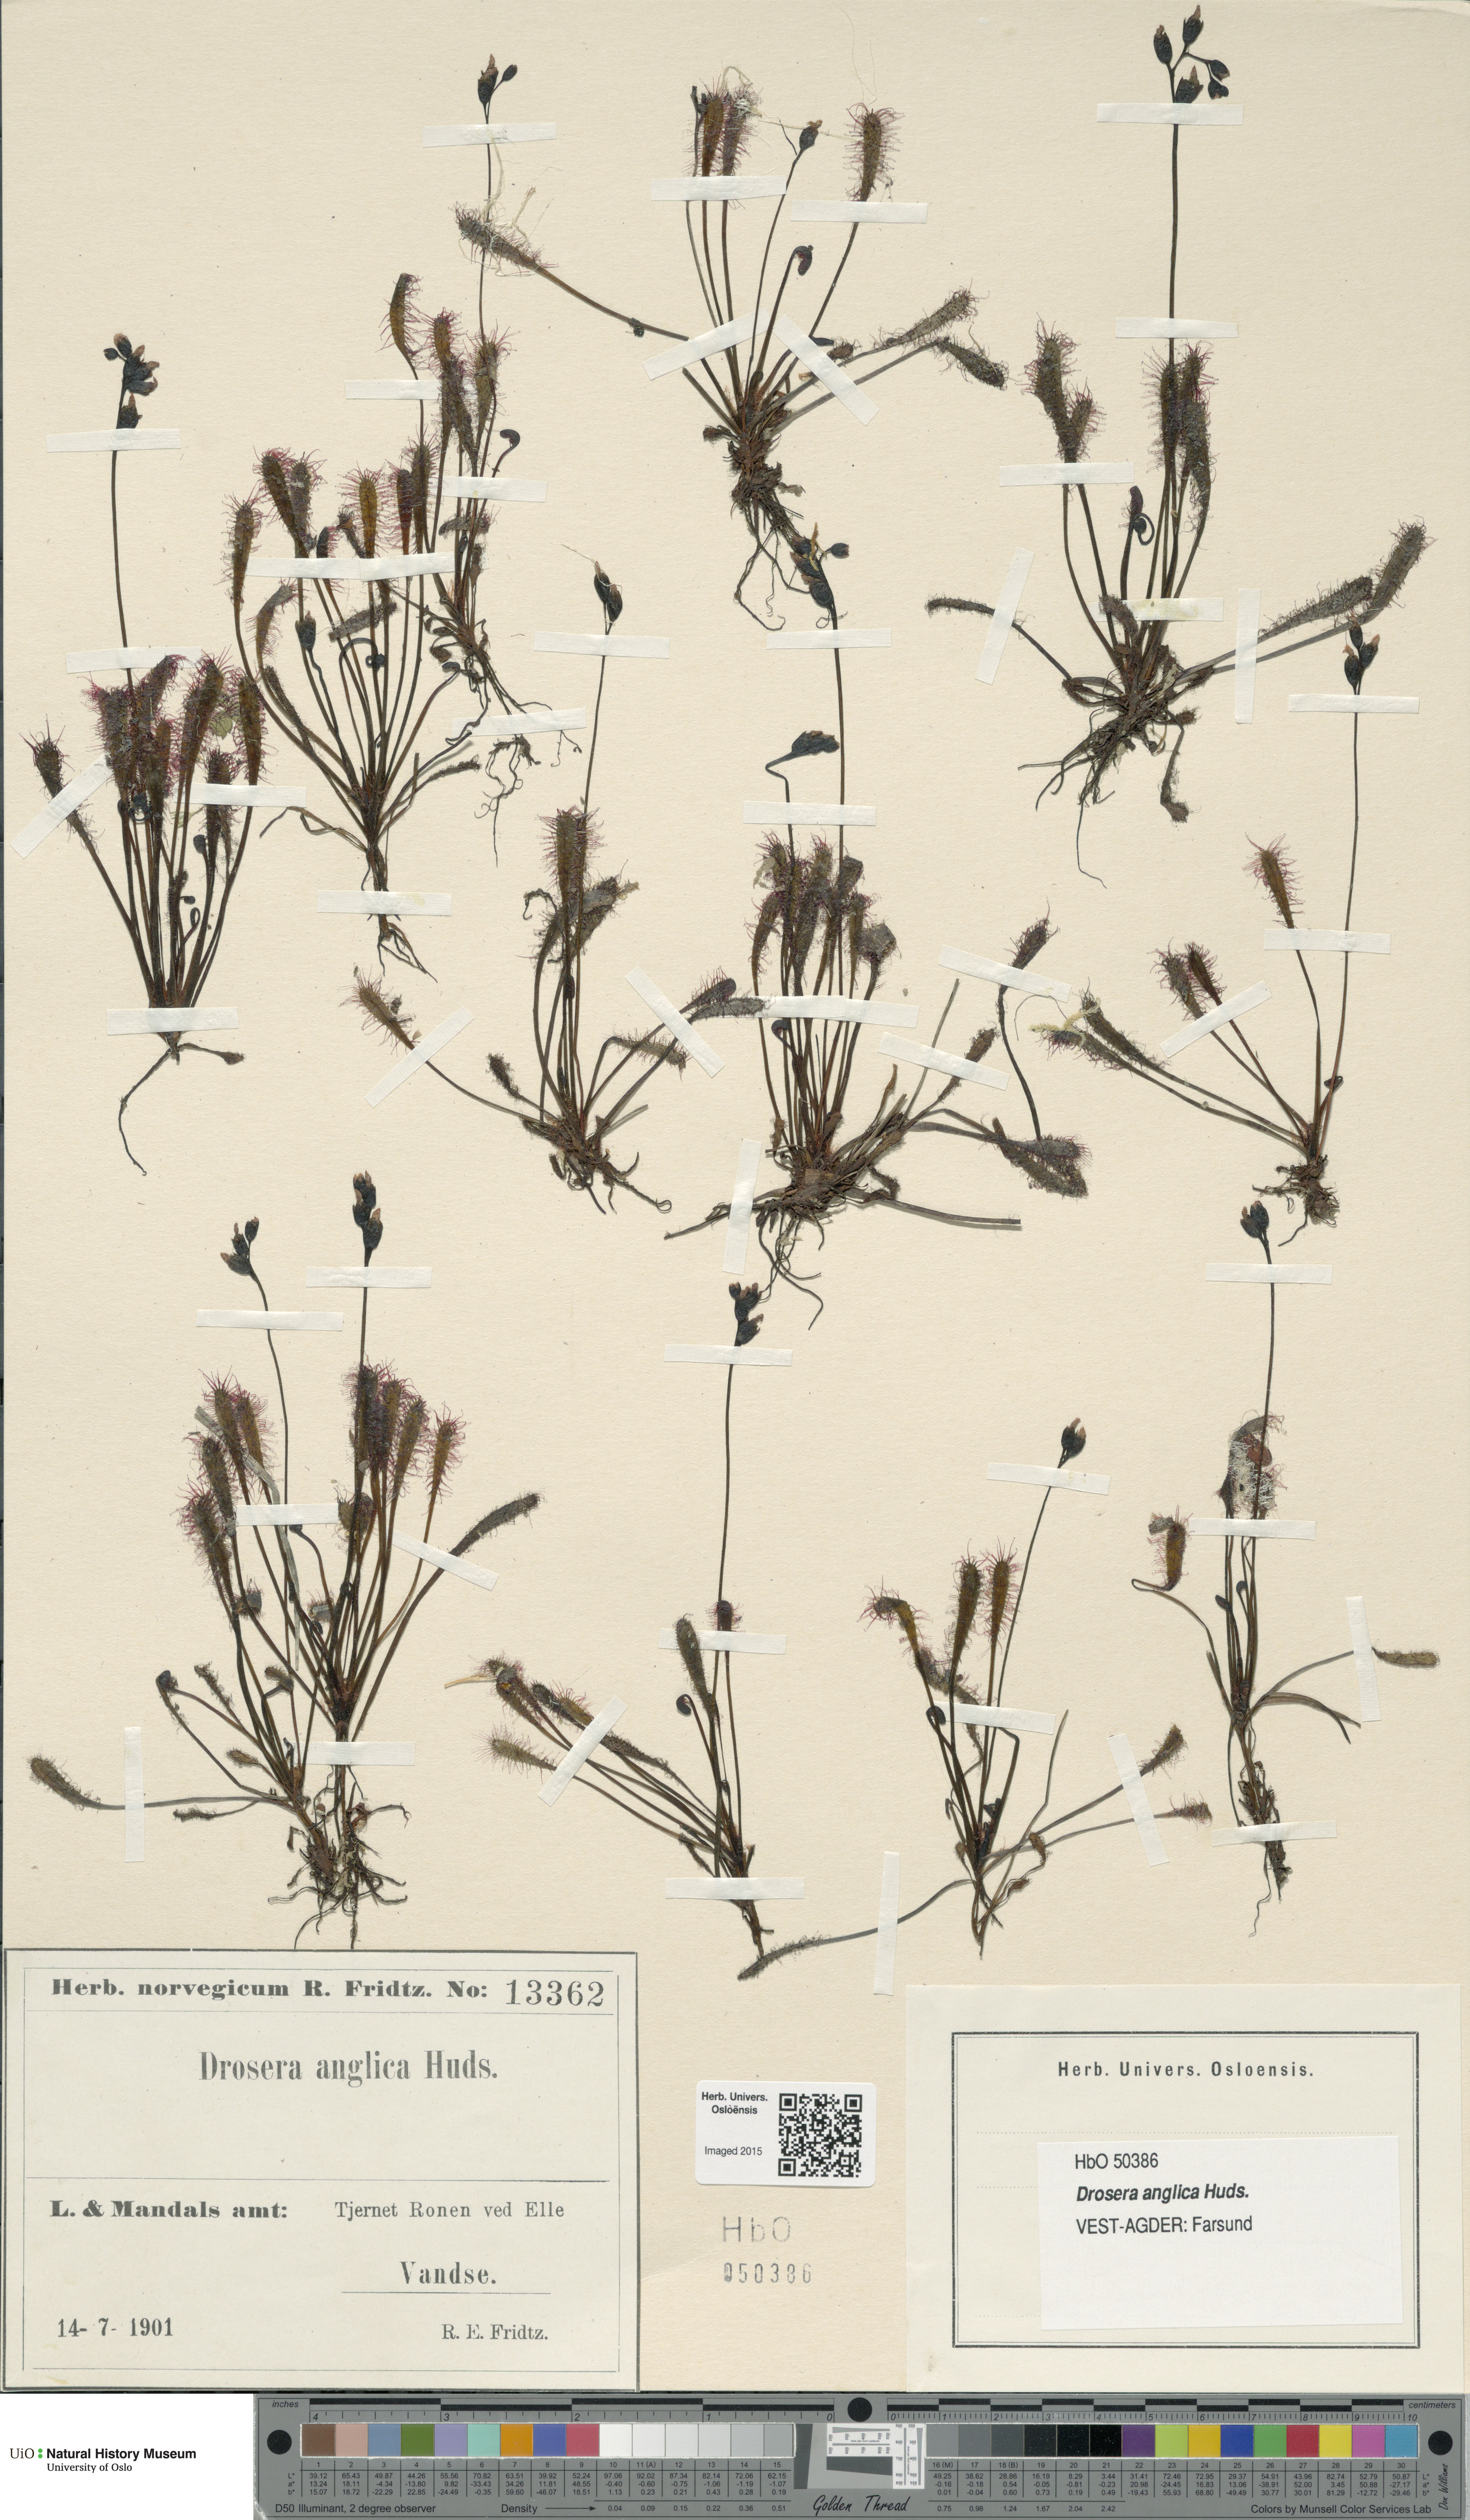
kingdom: Plantae
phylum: Tracheophyta
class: Magnoliopsida
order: Caryophyllales
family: Droseraceae
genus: Drosera
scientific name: Drosera anglica
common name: Great sundew
